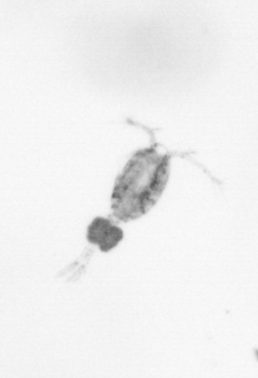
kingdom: Animalia
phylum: Arthropoda
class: Copepoda
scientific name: Copepoda
